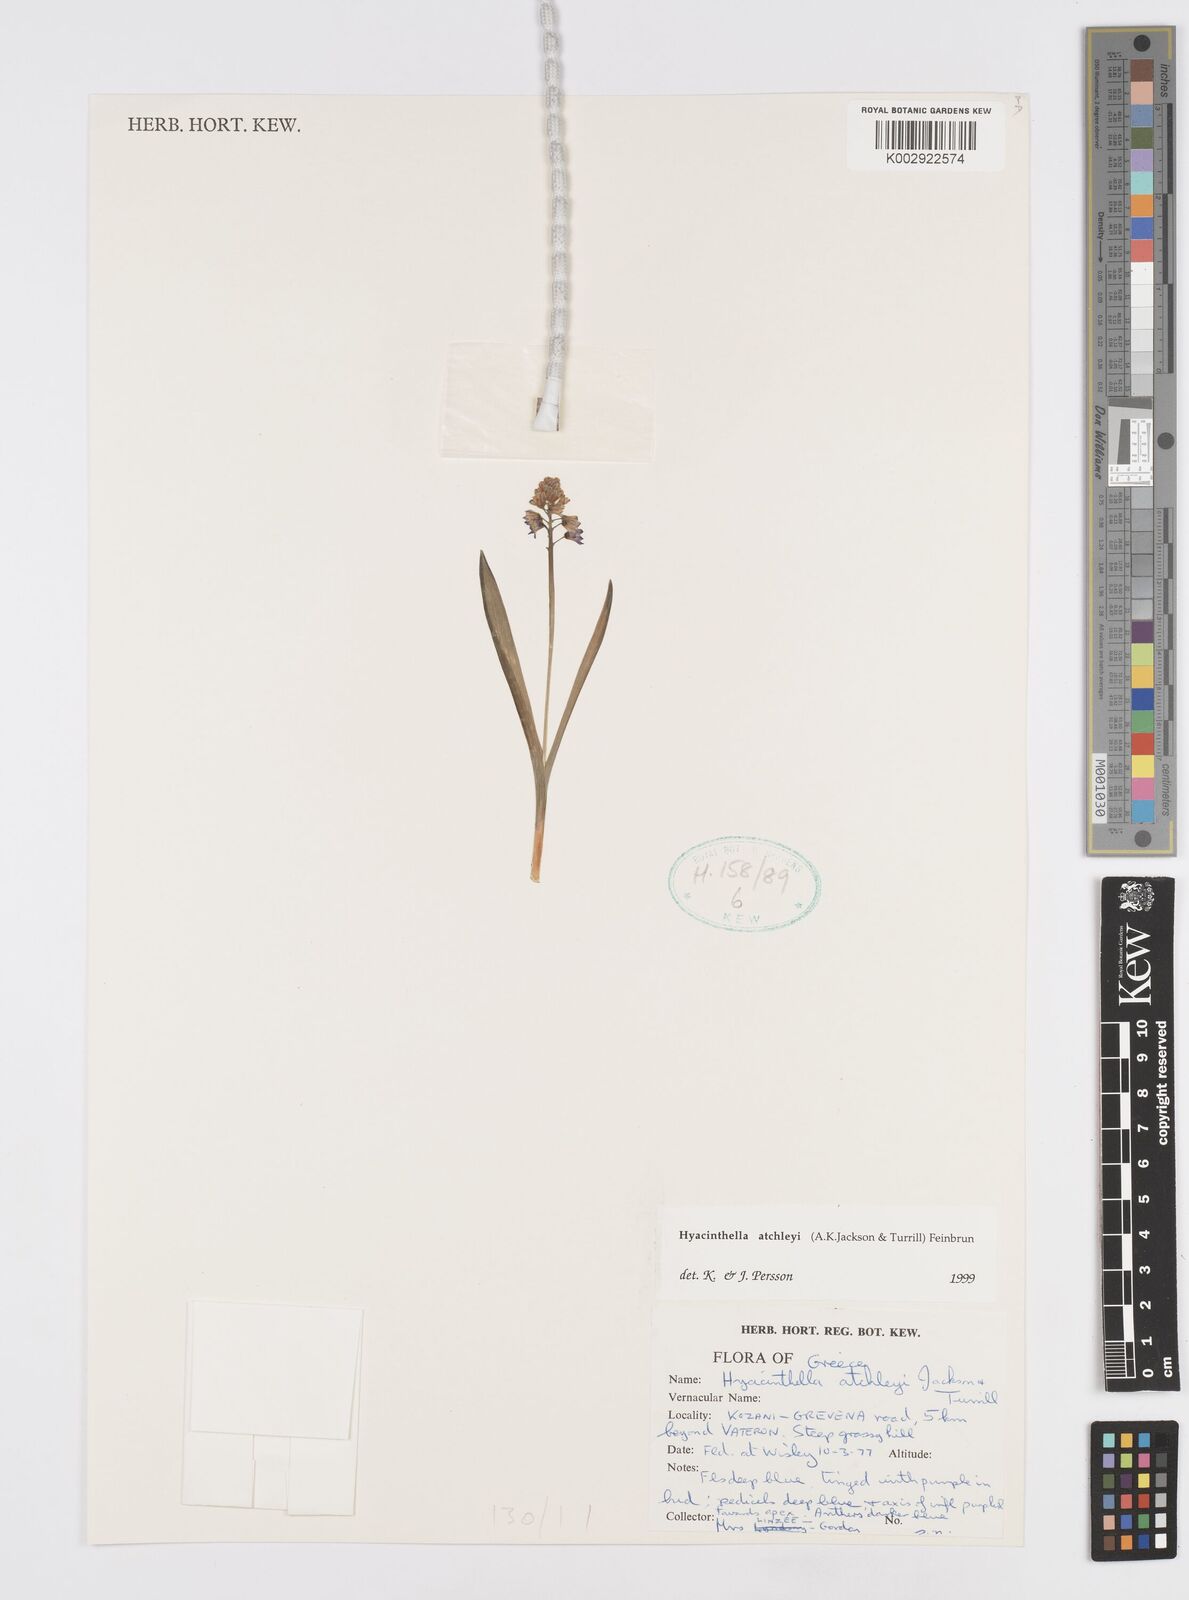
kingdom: Plantae
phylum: Tracheophyta
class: Liliopsida
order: Asparagales
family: Asparagaceae
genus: Hyacinthella
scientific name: Hyacinthella leucophaea
